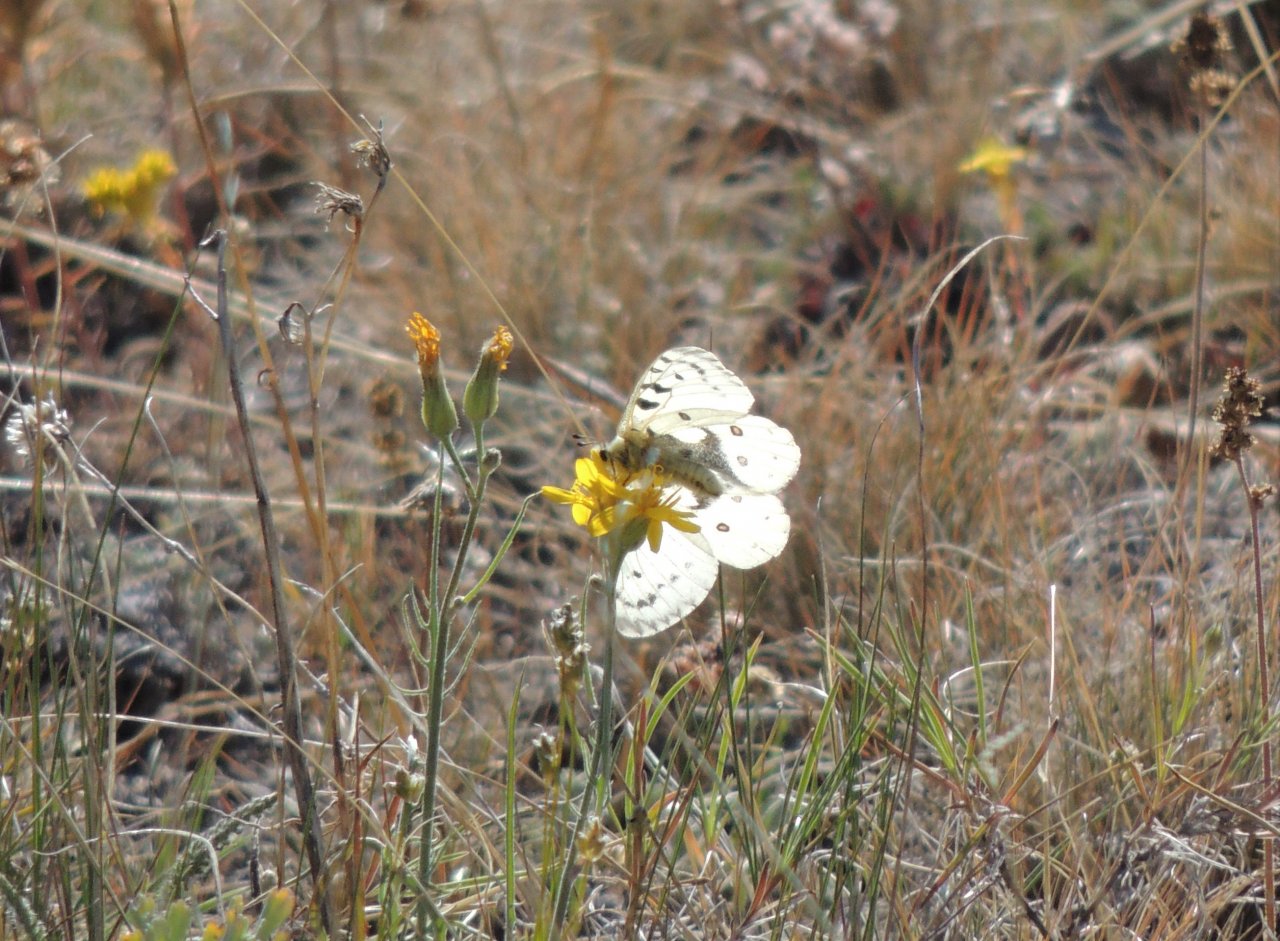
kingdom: Animalia
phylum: Arthropoda
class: Insecta
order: Lepidoptera
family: Papilionidae
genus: Parnassius
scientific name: Parnassius smintheus
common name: Rocky Mountain Parnassian
